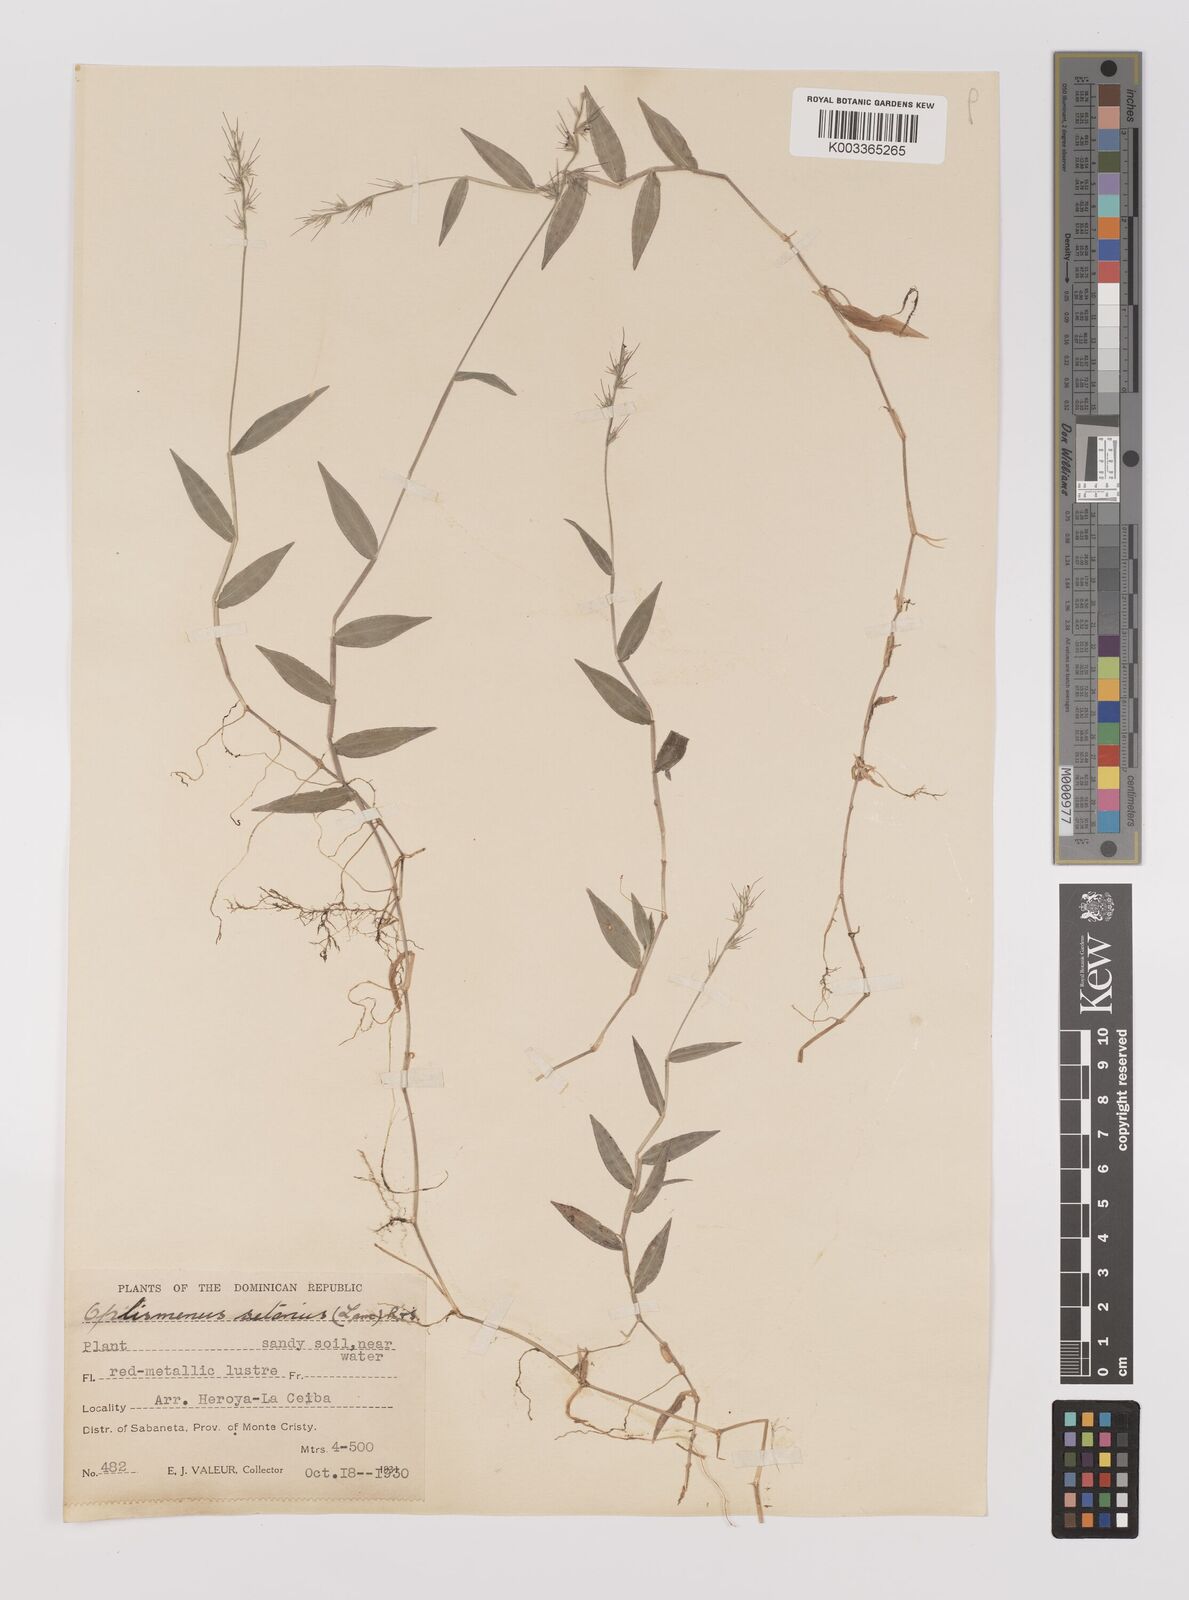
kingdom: Plantae
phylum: Tracheophyta
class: Liliopsida
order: Poales
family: Poaceae
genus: Oplismenus
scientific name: Oplismenus undulatifolius
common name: Wavyleaf basketgrass
